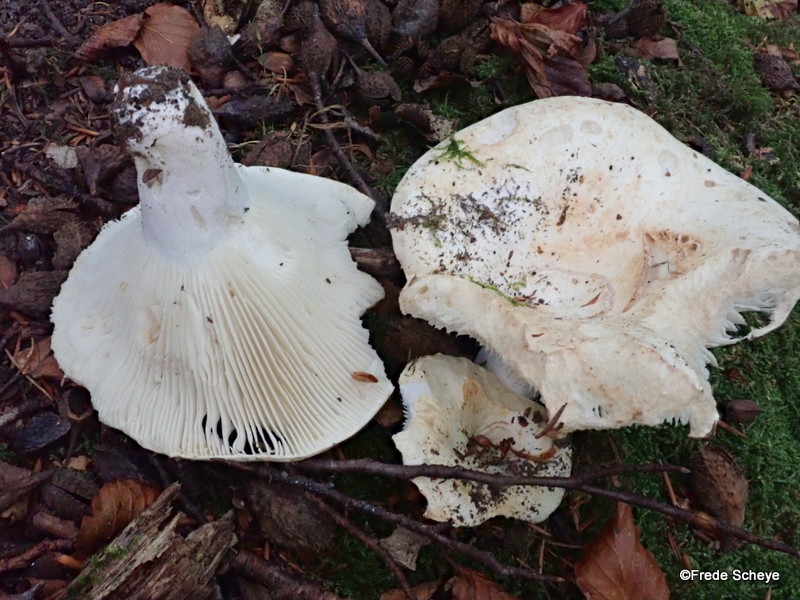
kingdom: Fungi
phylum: Basidiomycota
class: Agaricomycetes
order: Russulales
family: Russulaceae
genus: Russula
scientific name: Russula chloroides
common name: grønhalset tragt-skørhat
